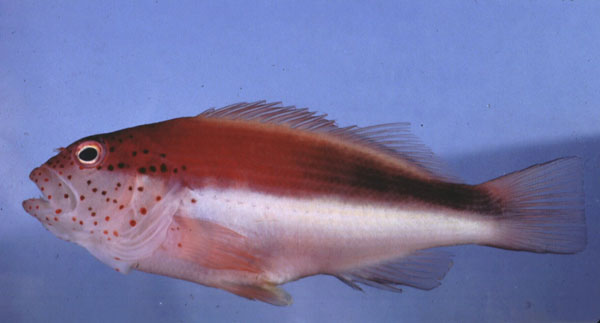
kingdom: Animalia
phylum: Chordata
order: Perciformes
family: Cirrhitidae
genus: Paracirrhites
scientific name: Paracirrhites forsteri
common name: Freckled hawkfish
